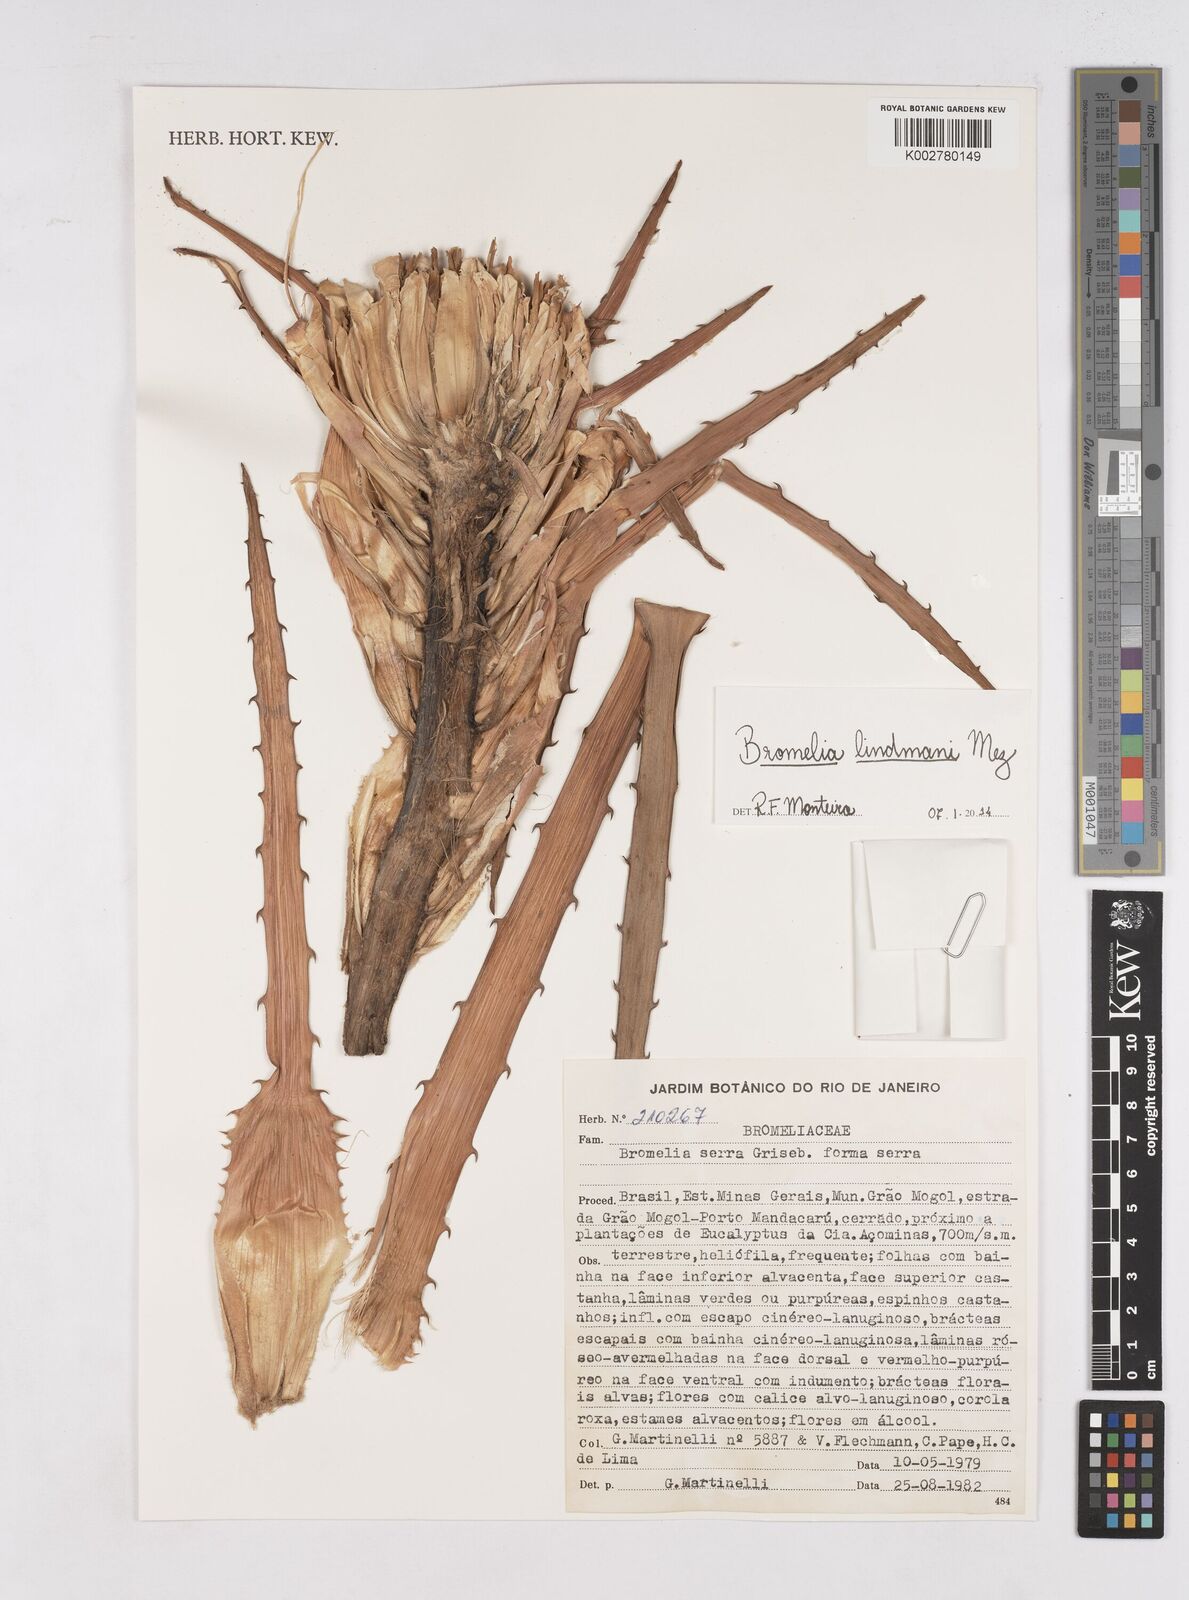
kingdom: Plantae
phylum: Tracheophyta
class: Liliopsida
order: Poales
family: Bromeliaceae
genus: Bromelia
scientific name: Bromelia serra
